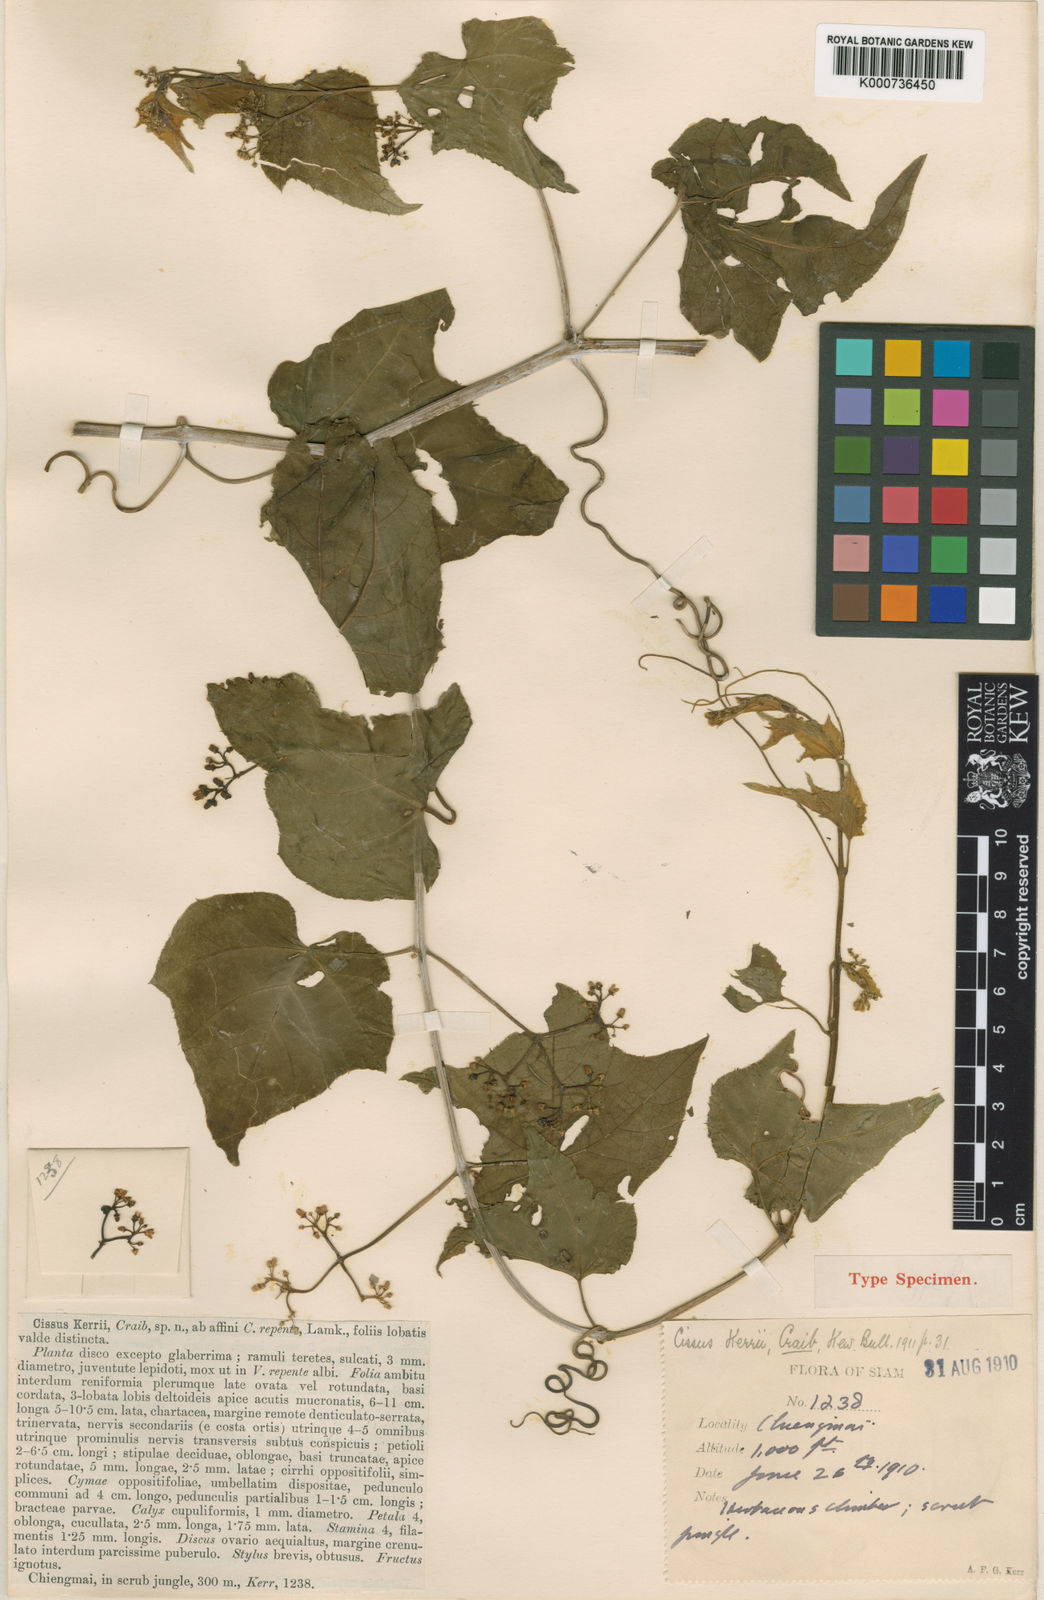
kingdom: Plantae
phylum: Tracheophyta
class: Magnoliopsida
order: Vitales
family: Vitaceae
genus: Cissus
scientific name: Cissus modeccoides
